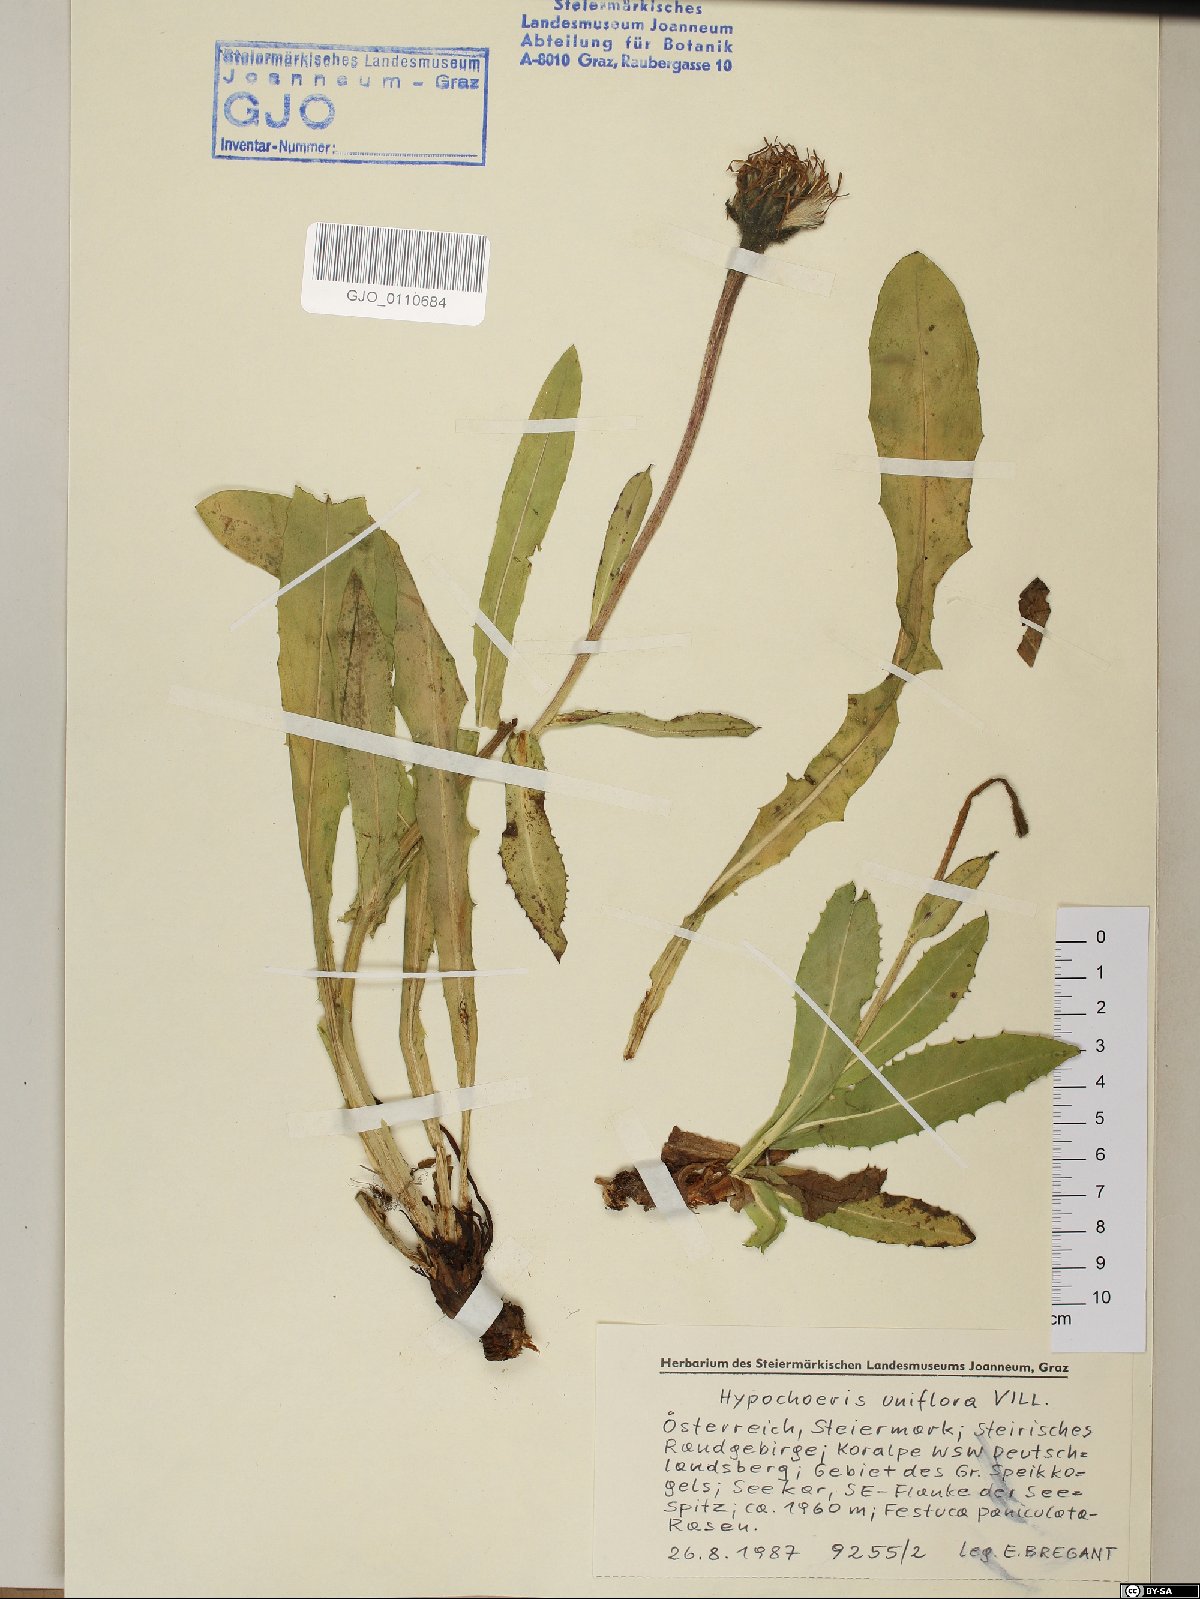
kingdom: Plantae
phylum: Tracheophyta
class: Magnoliopsida
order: Asterales
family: Asteraceae
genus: Trommsdorffia
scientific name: Trommsdorffia uniflora
